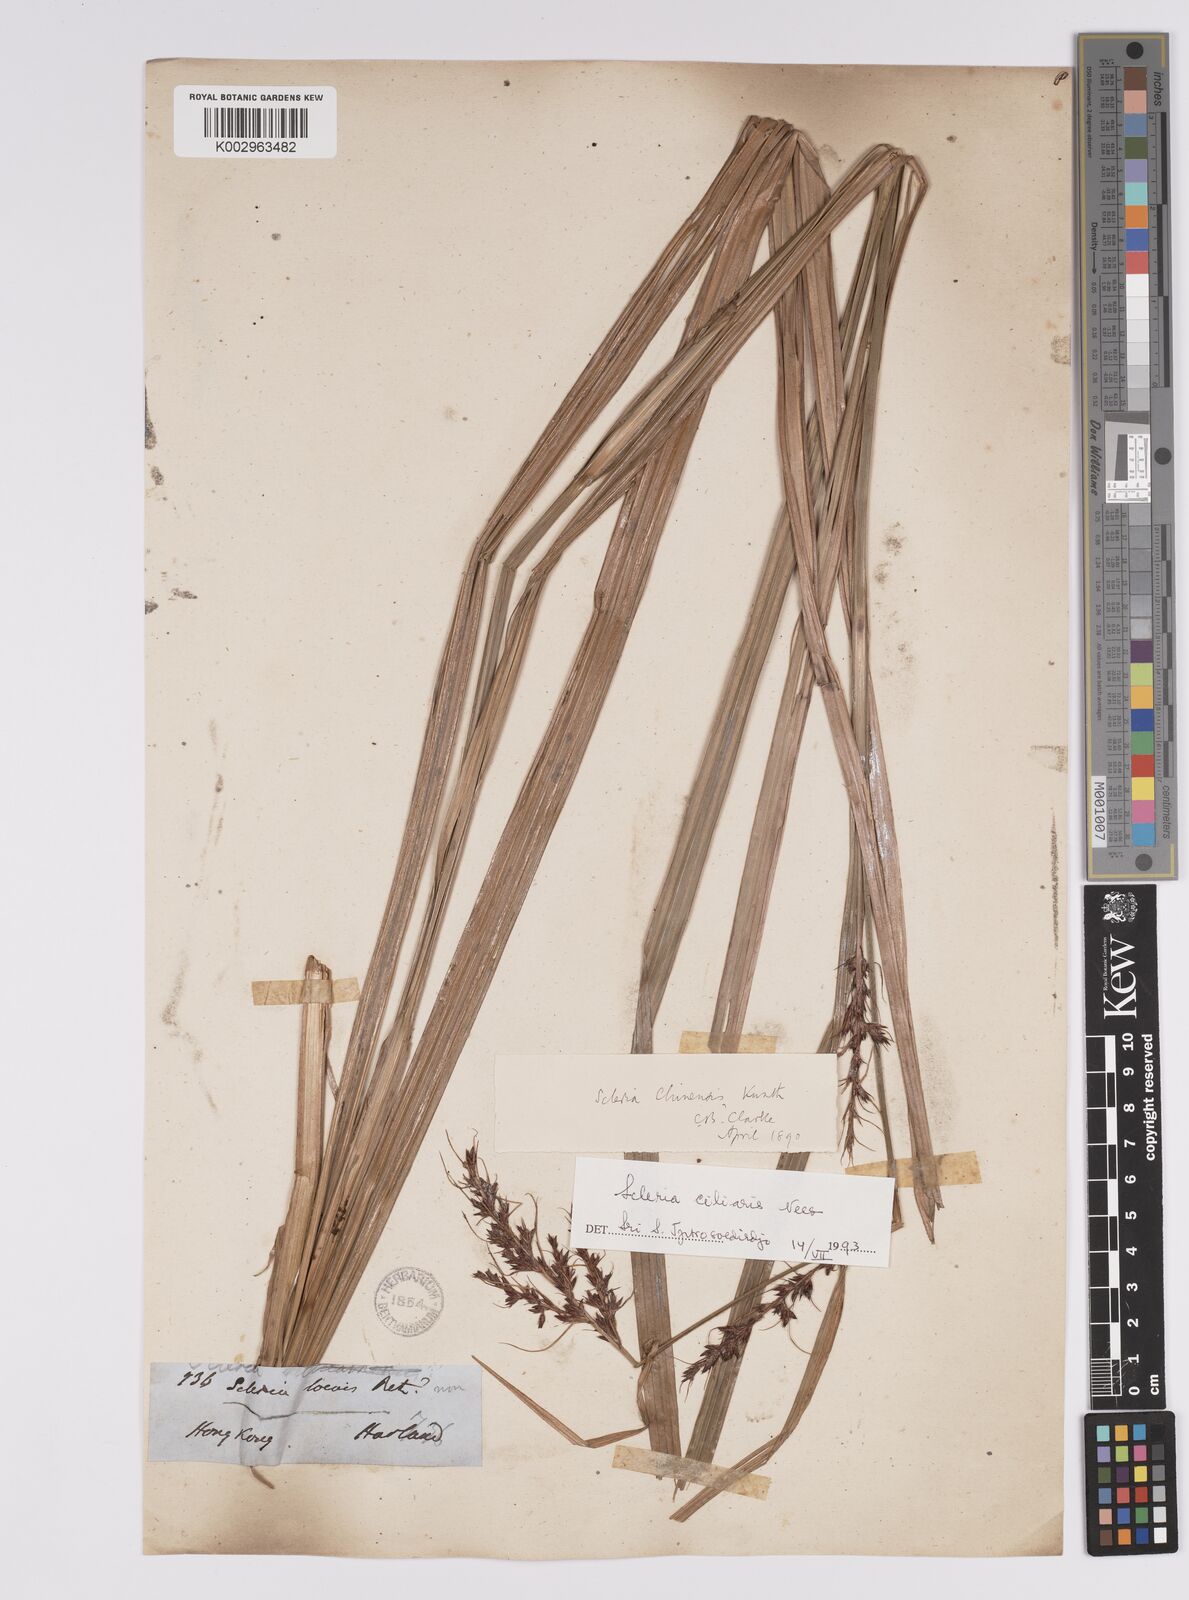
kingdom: Plantae
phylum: Tracheophyta
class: Liliopsida
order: Poales
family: Cyperaceae
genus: Scleria
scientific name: Scleria ciliaris
